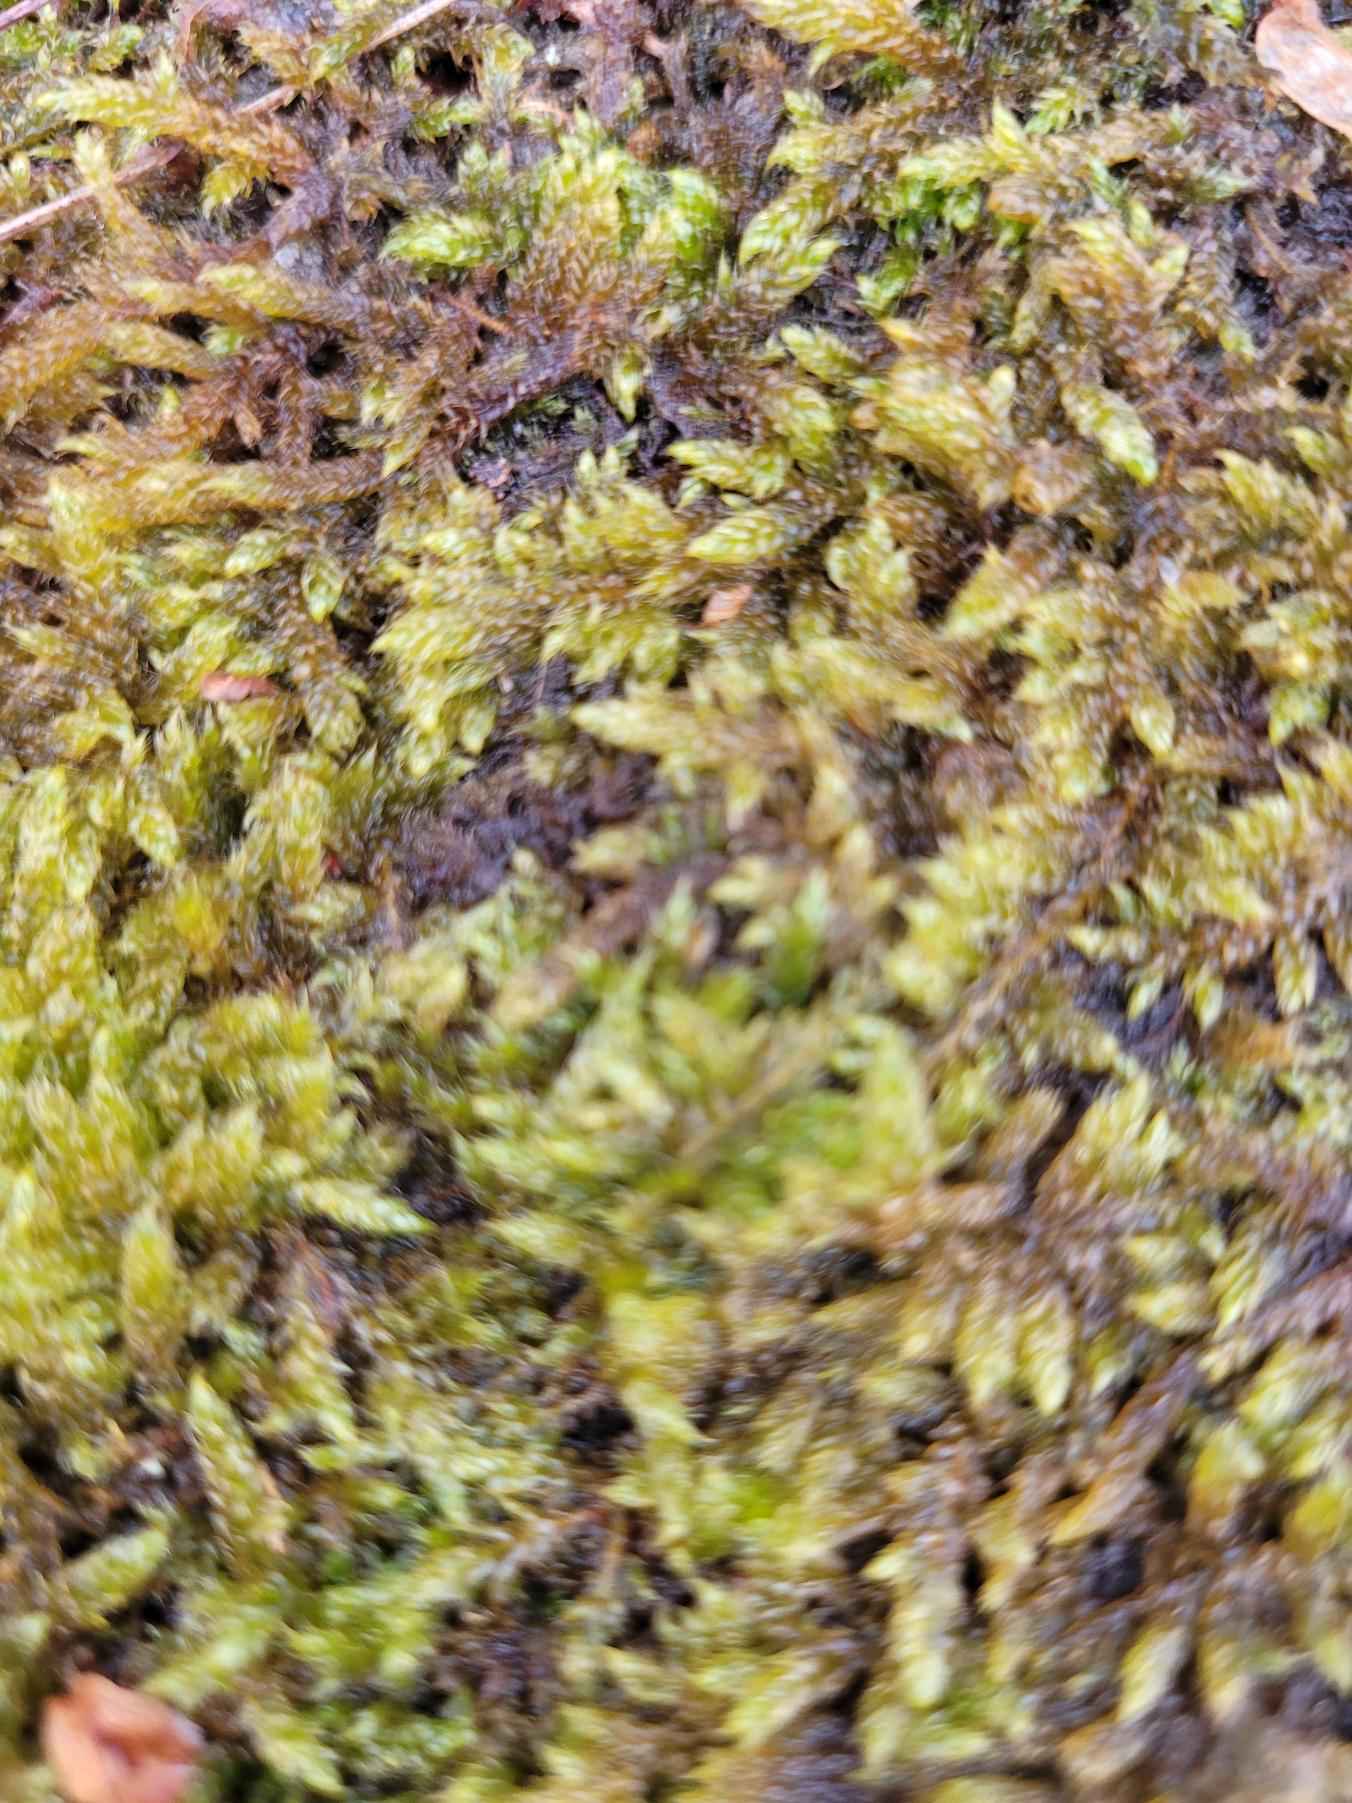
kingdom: Plantae
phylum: Bryophyta
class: Bryopsida
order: Hypnales
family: Hypnaceae
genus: Hypnum
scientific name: Hypnum cupressiforme
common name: Almindelig cypresmos
